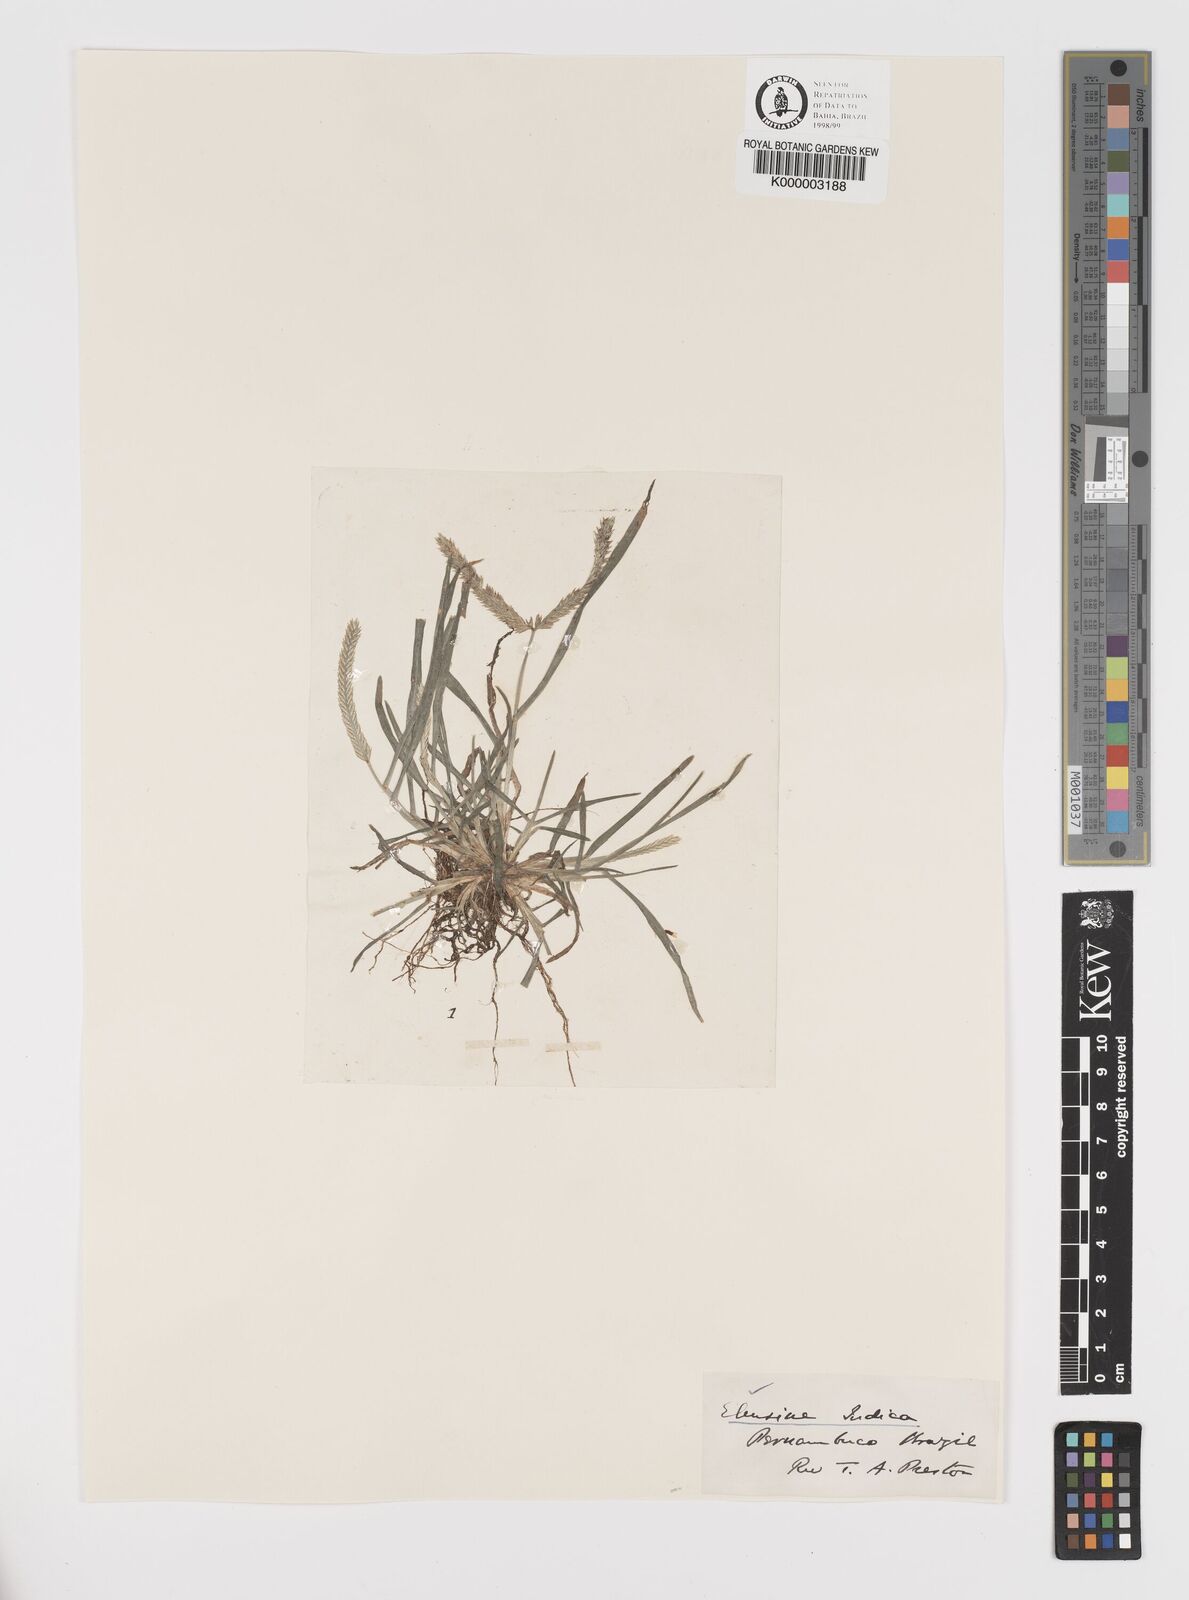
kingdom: Plantae
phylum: Tracheophyta
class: Liliopsida
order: Poales
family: Poaceae
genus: Eleusine
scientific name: Eleusine indica
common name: Yard-grass
